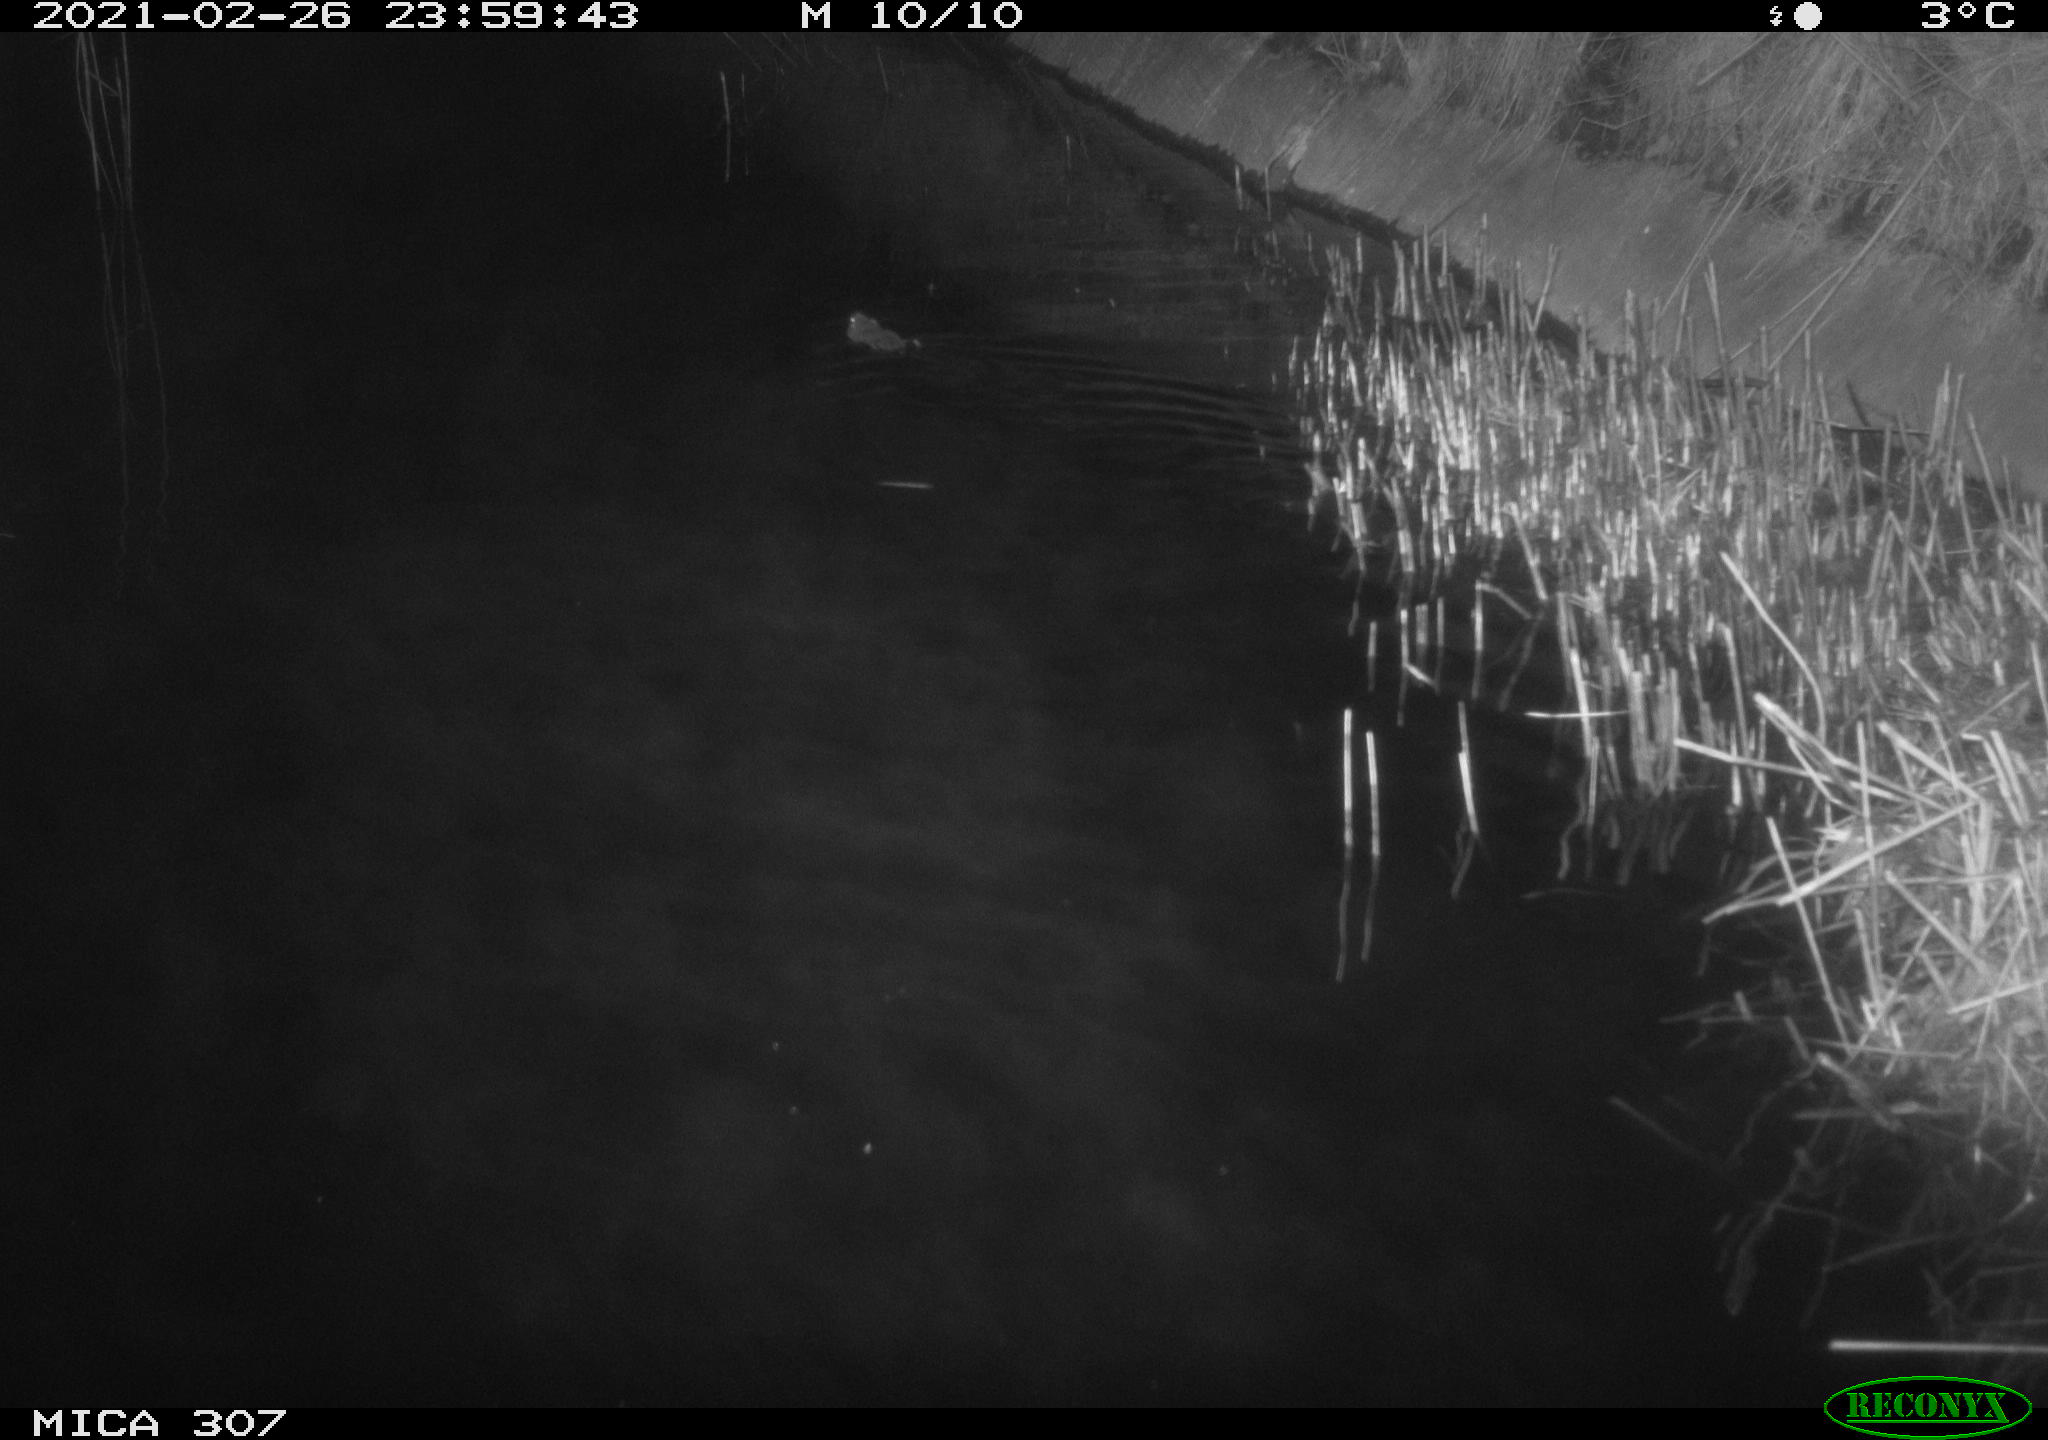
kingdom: Animalia
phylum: Chordata
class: Mammalia
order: Rodentia
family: Muridae
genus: Rattus
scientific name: Rattus norvegicus
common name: Brown rat
